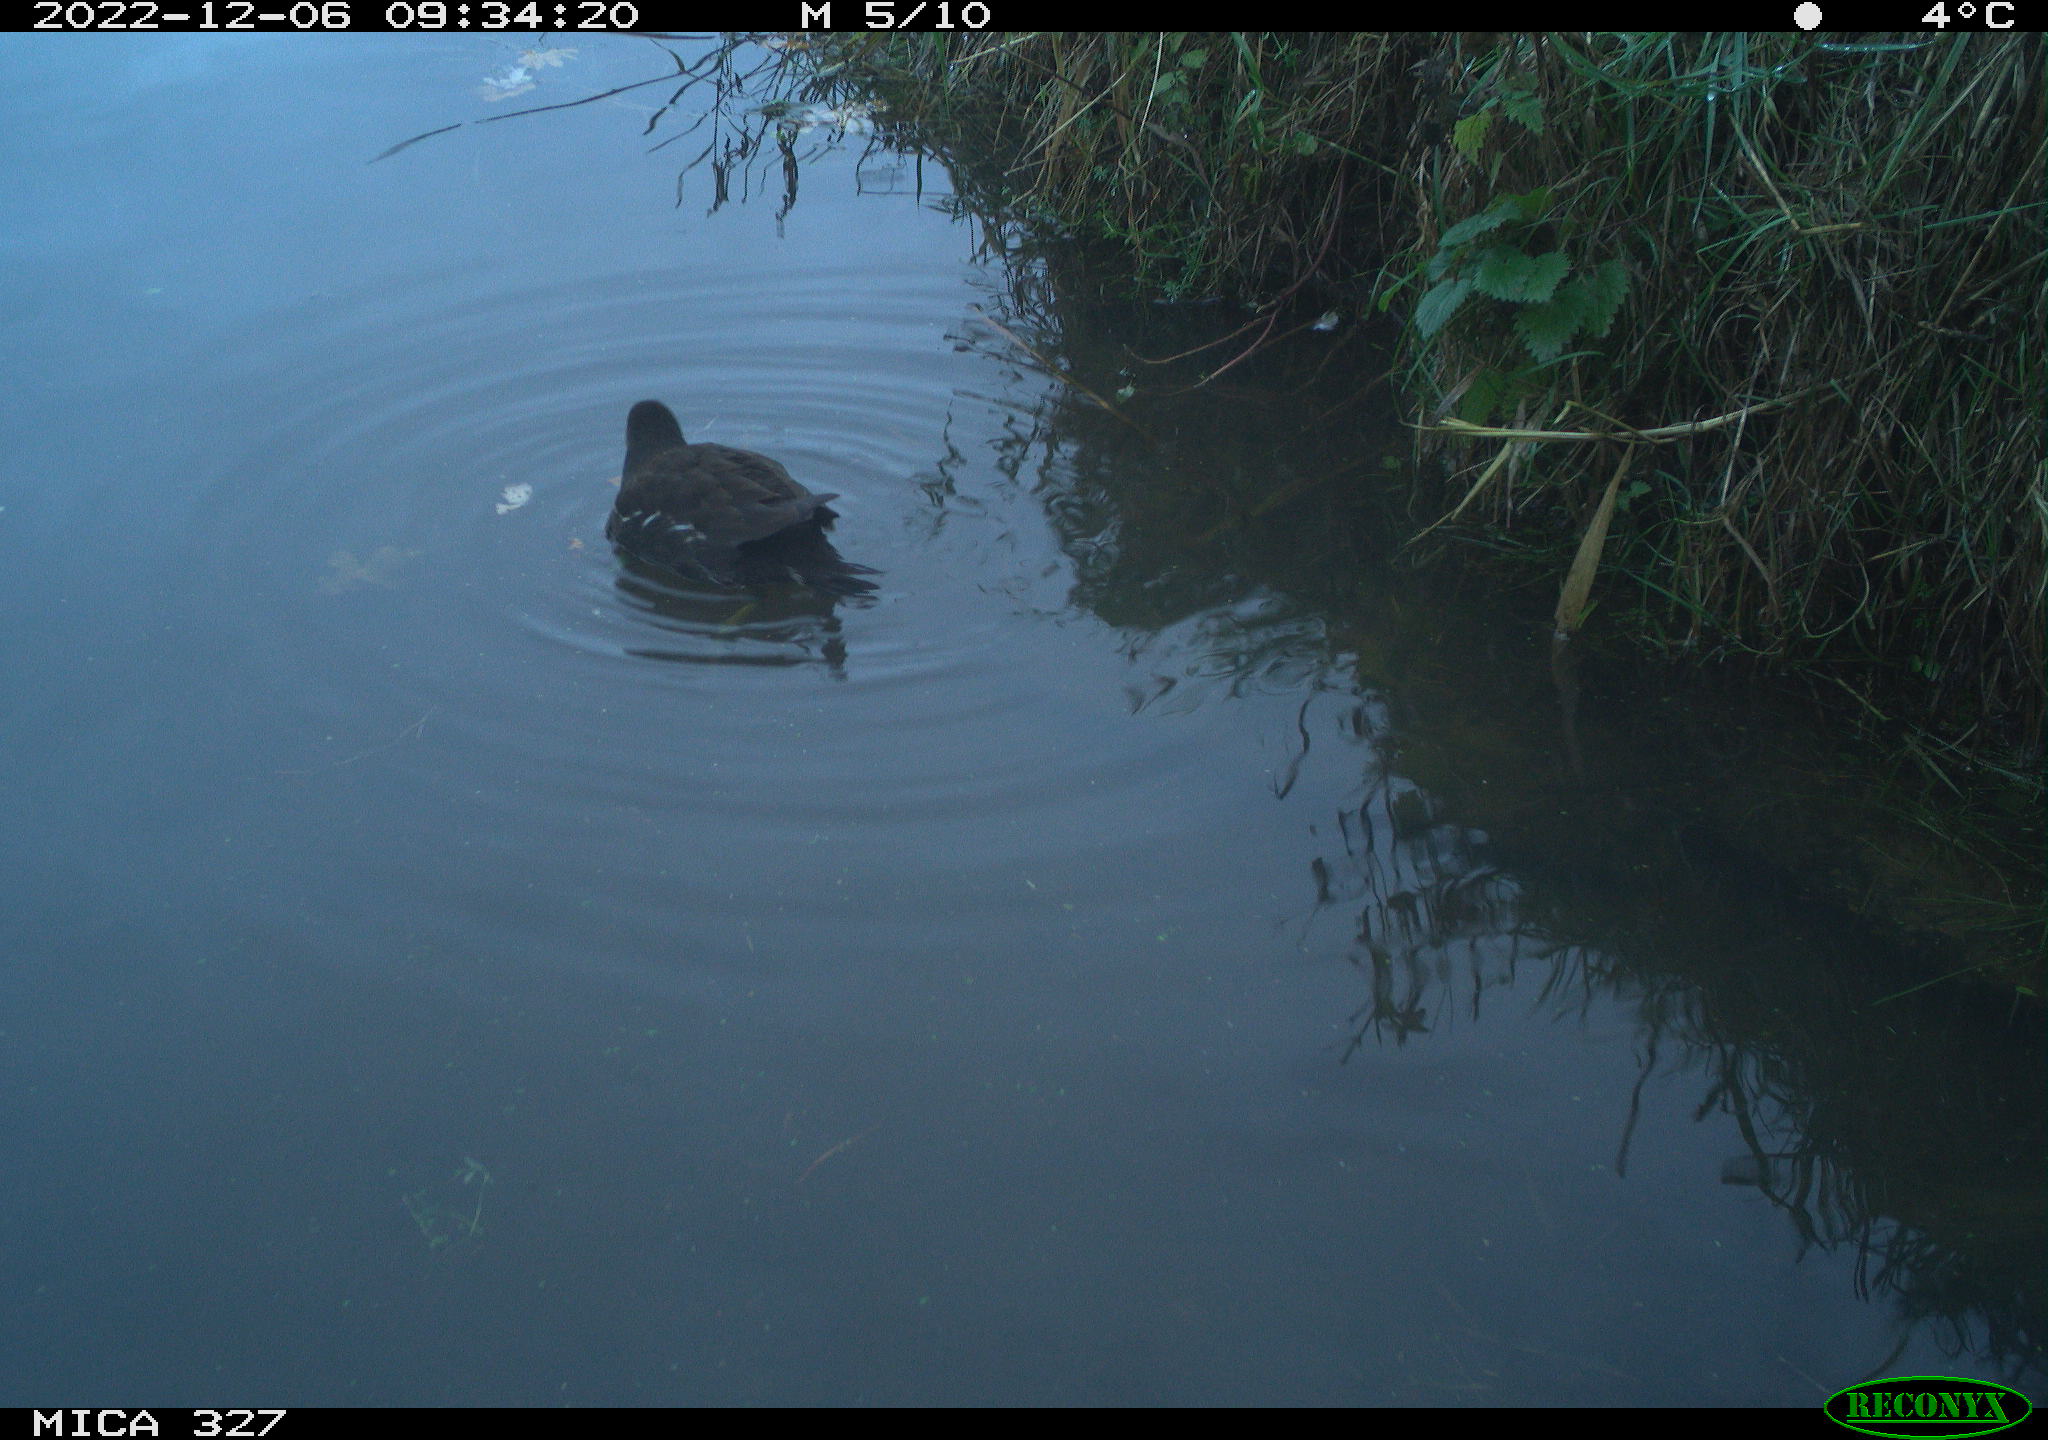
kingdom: Animalia
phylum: Chordata
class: Aves
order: Gruiformes
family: Rallidae
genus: Gallinula
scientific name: Gallinula chloropus
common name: Common moorhen
